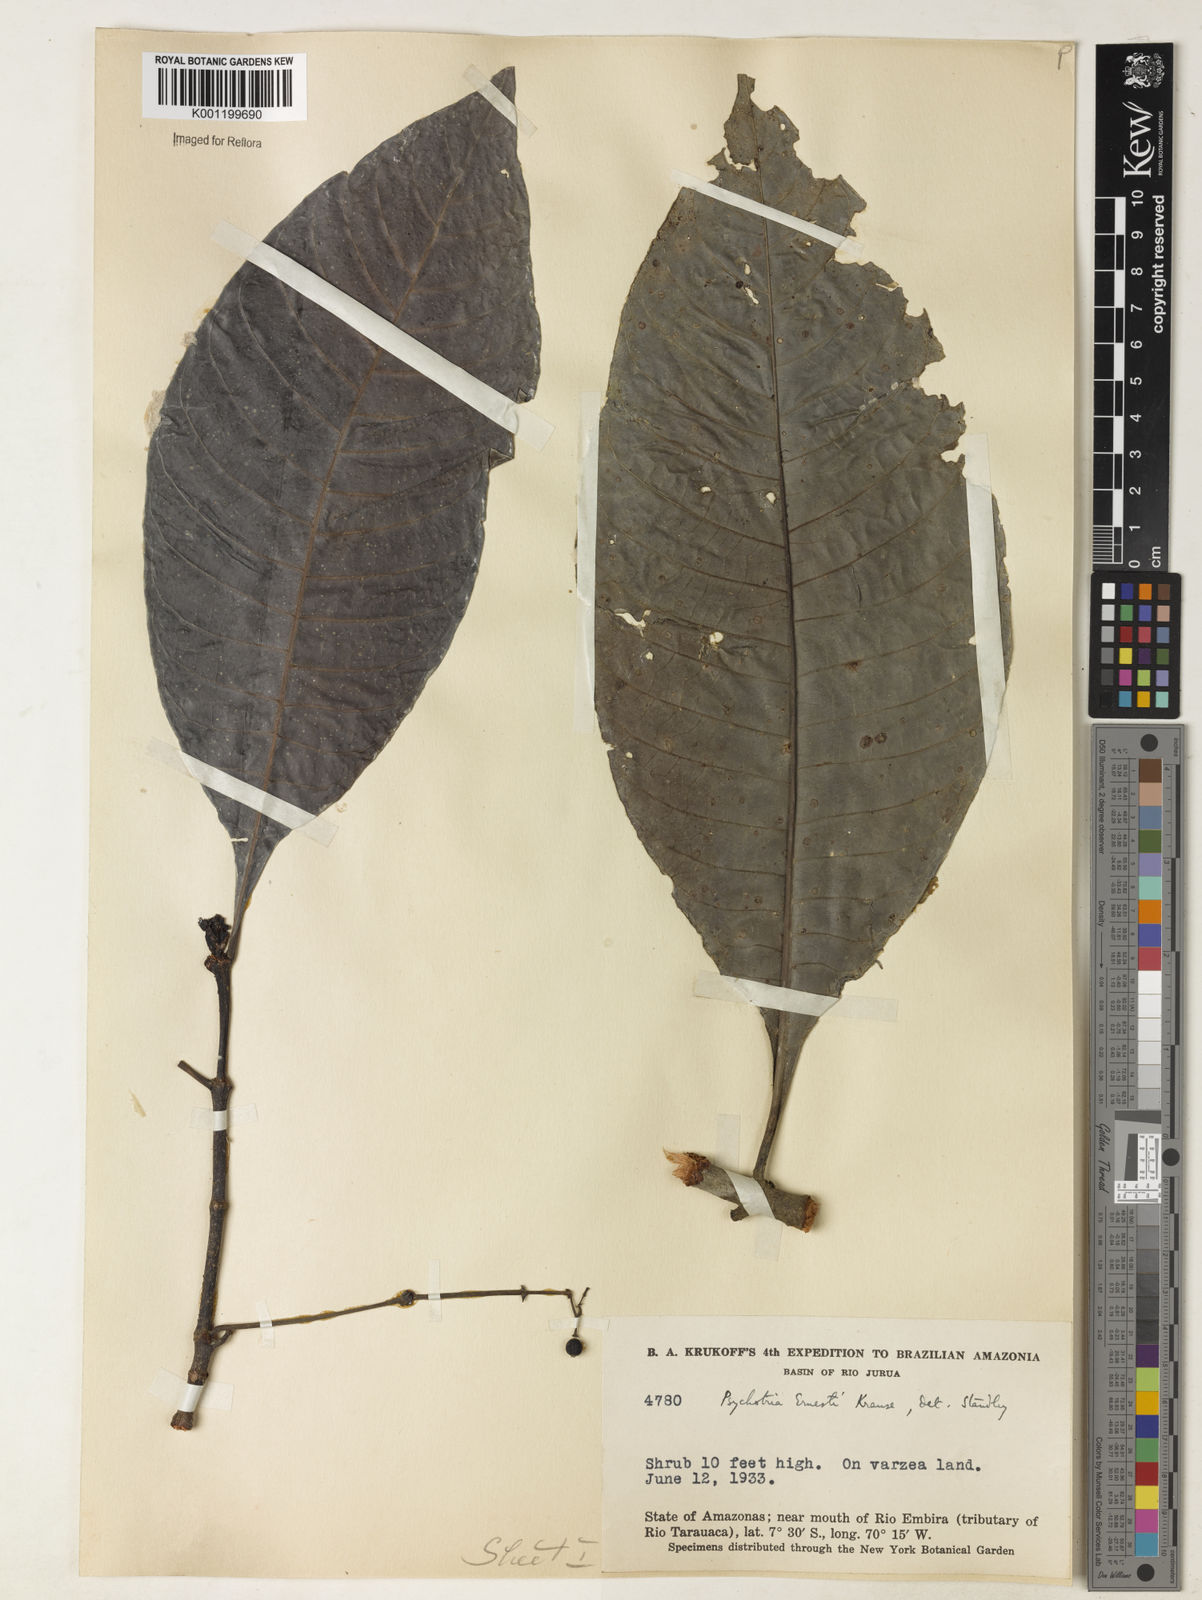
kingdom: Plantae
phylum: Tracheophyta
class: Magnoliopsida
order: Gentianales
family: Rubiaceae
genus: Psychotria
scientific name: Psychotria guianensis
